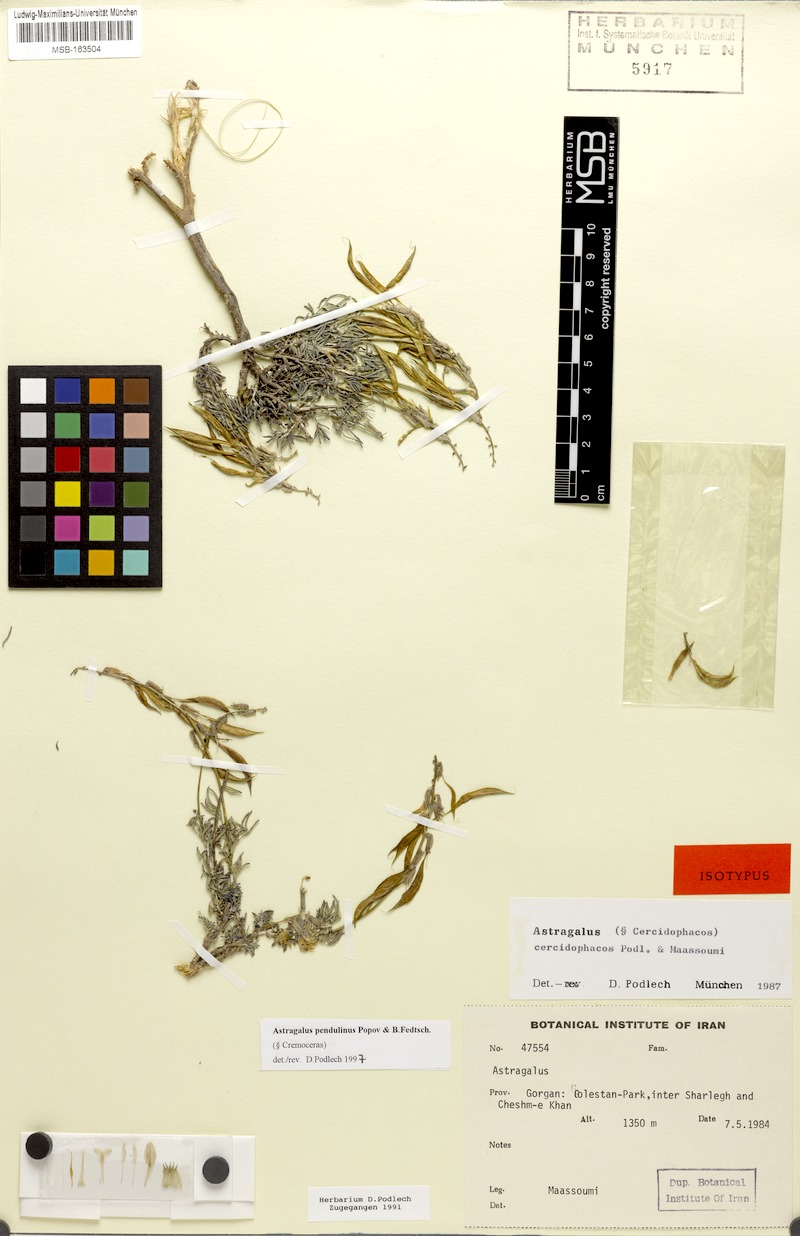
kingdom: Plantae
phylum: Tracheophyta
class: Magnoliopsida
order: Fabales
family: Fabaceae
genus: Astragalus
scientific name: Astragalus pendulinus
